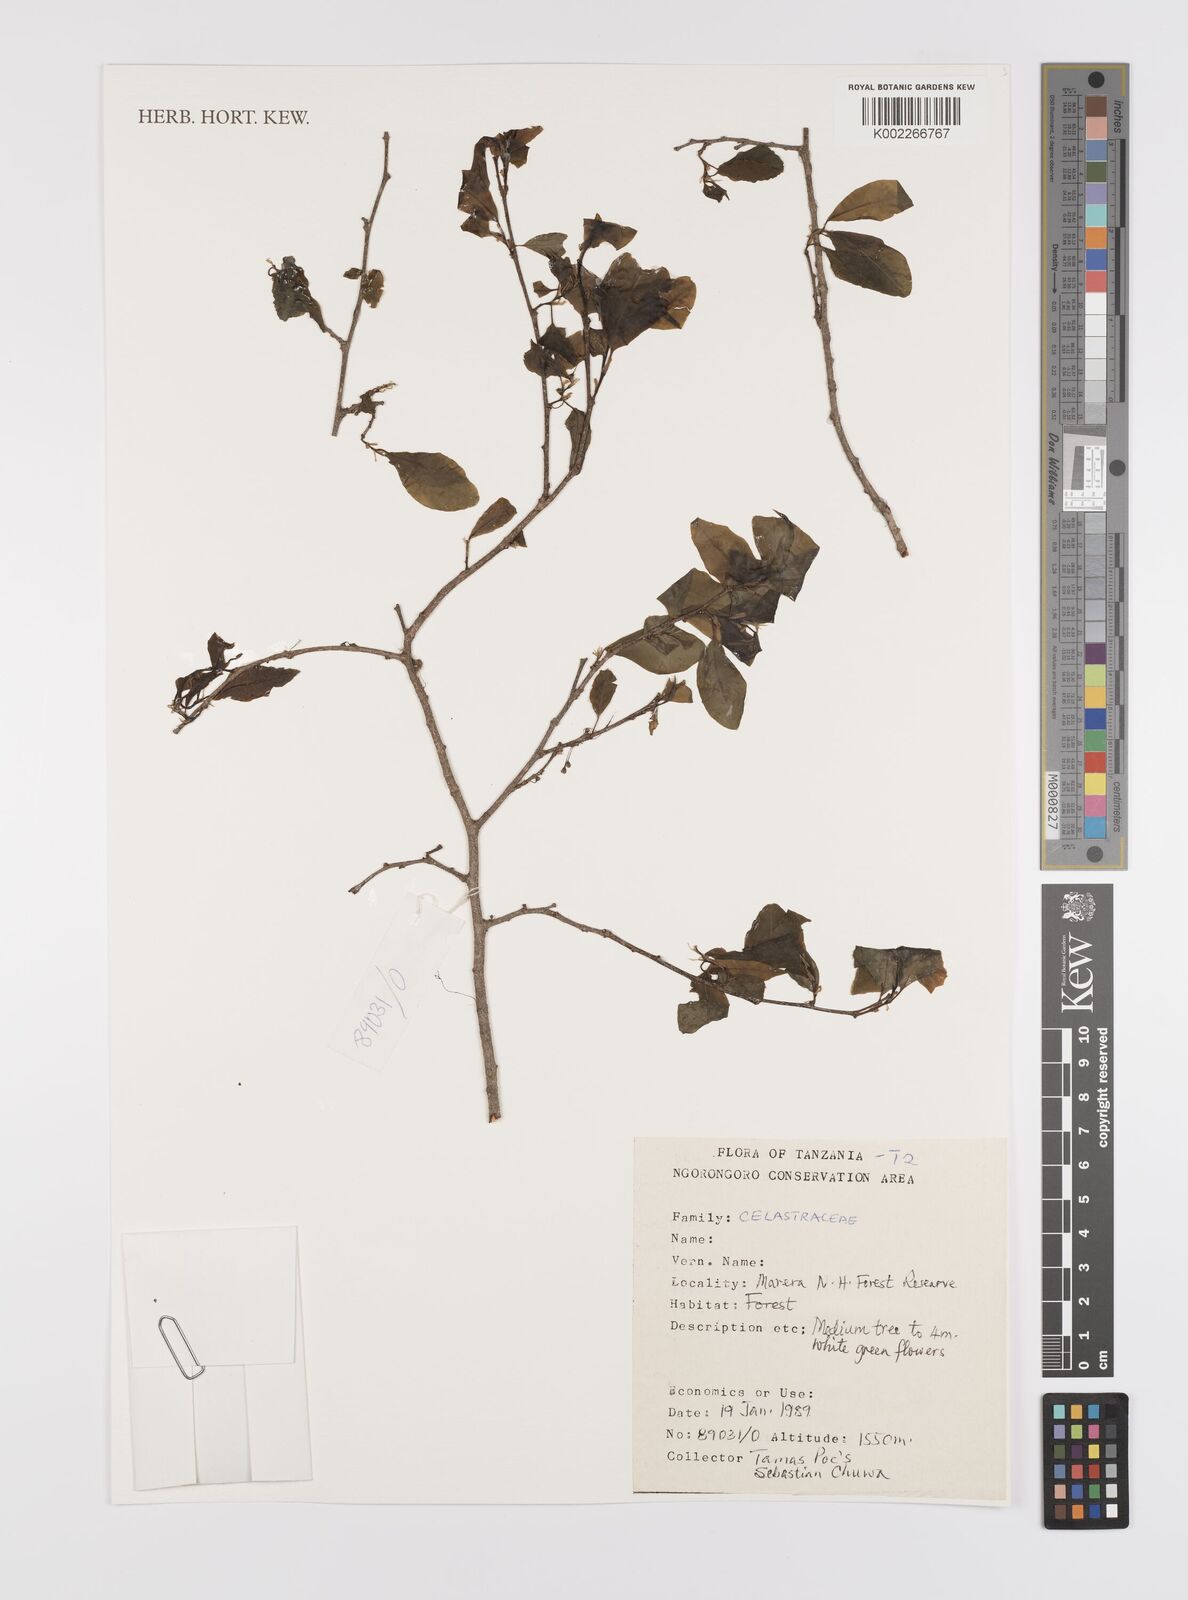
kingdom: Plantae
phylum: Tracheophyta
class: Magnoliopsida
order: Celastrales
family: Celastraceae
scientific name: Celastraceae
